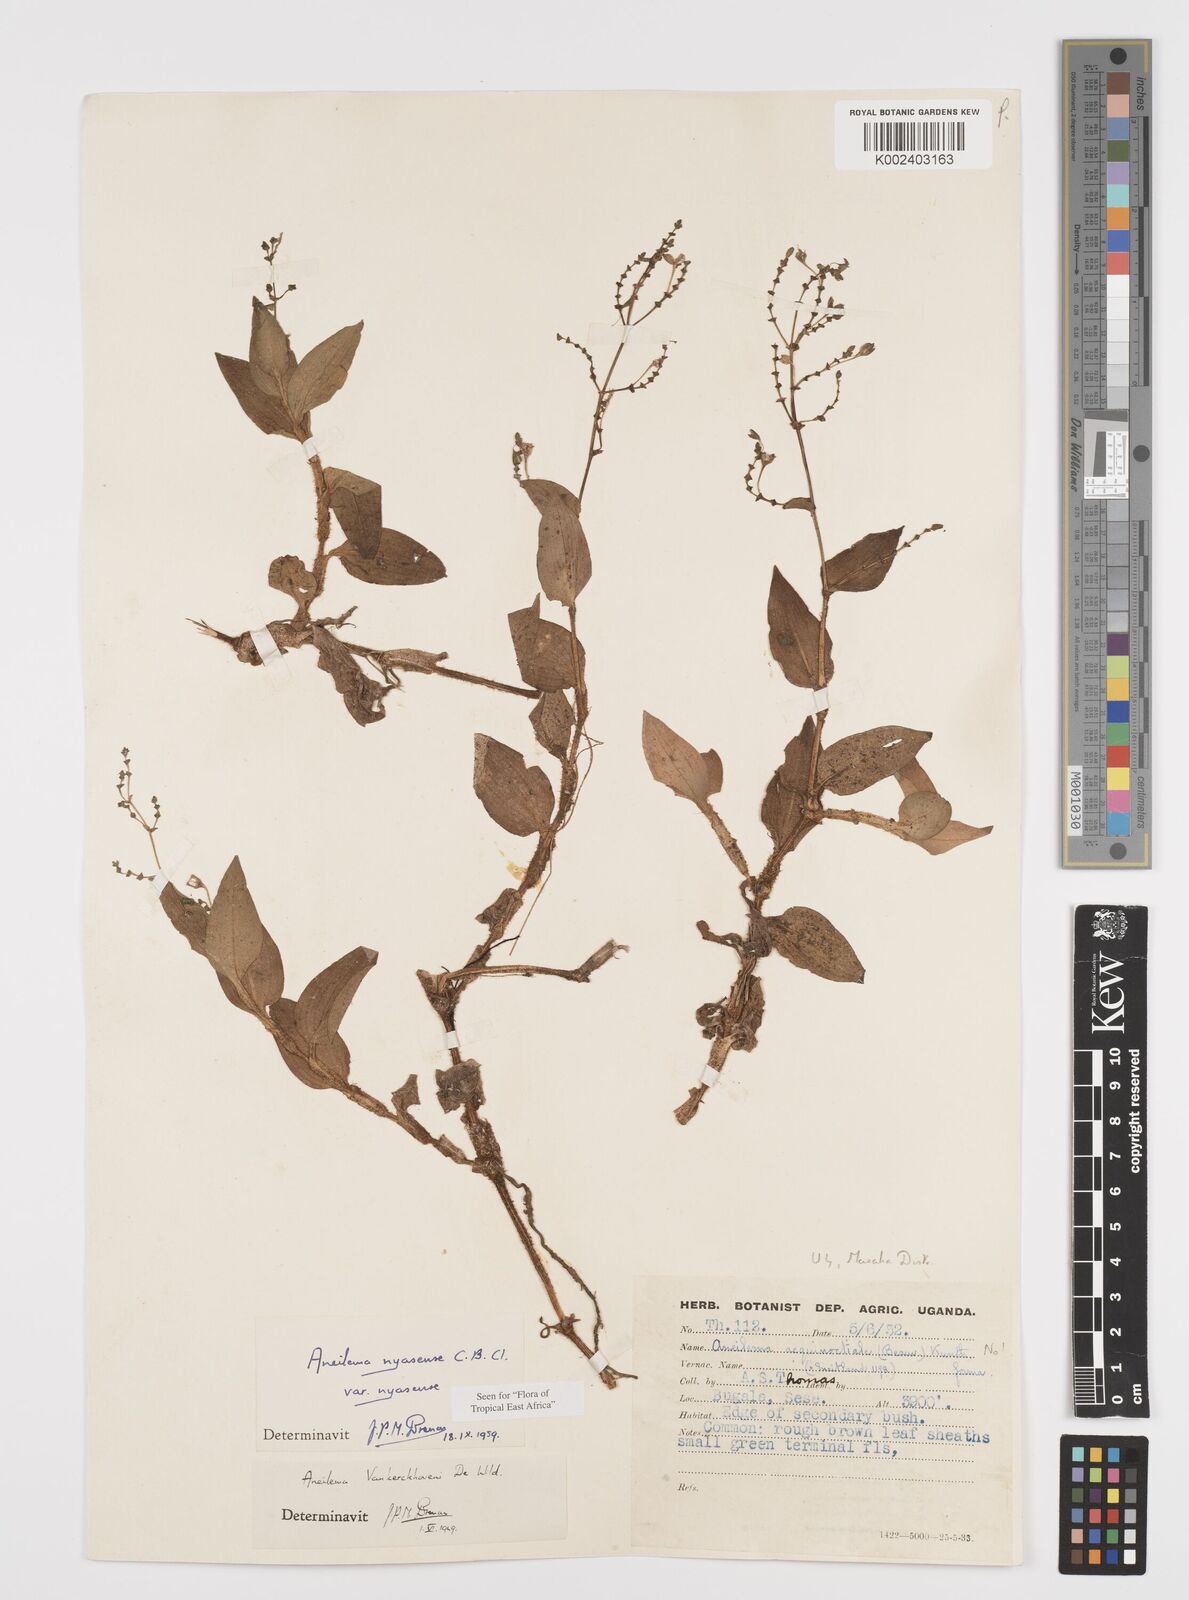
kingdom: Plantae
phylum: Tracheophyta
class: Liliopsida
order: Commelinales
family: Commelinaceae
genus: Aneilema
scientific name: Aneilema nyasense
